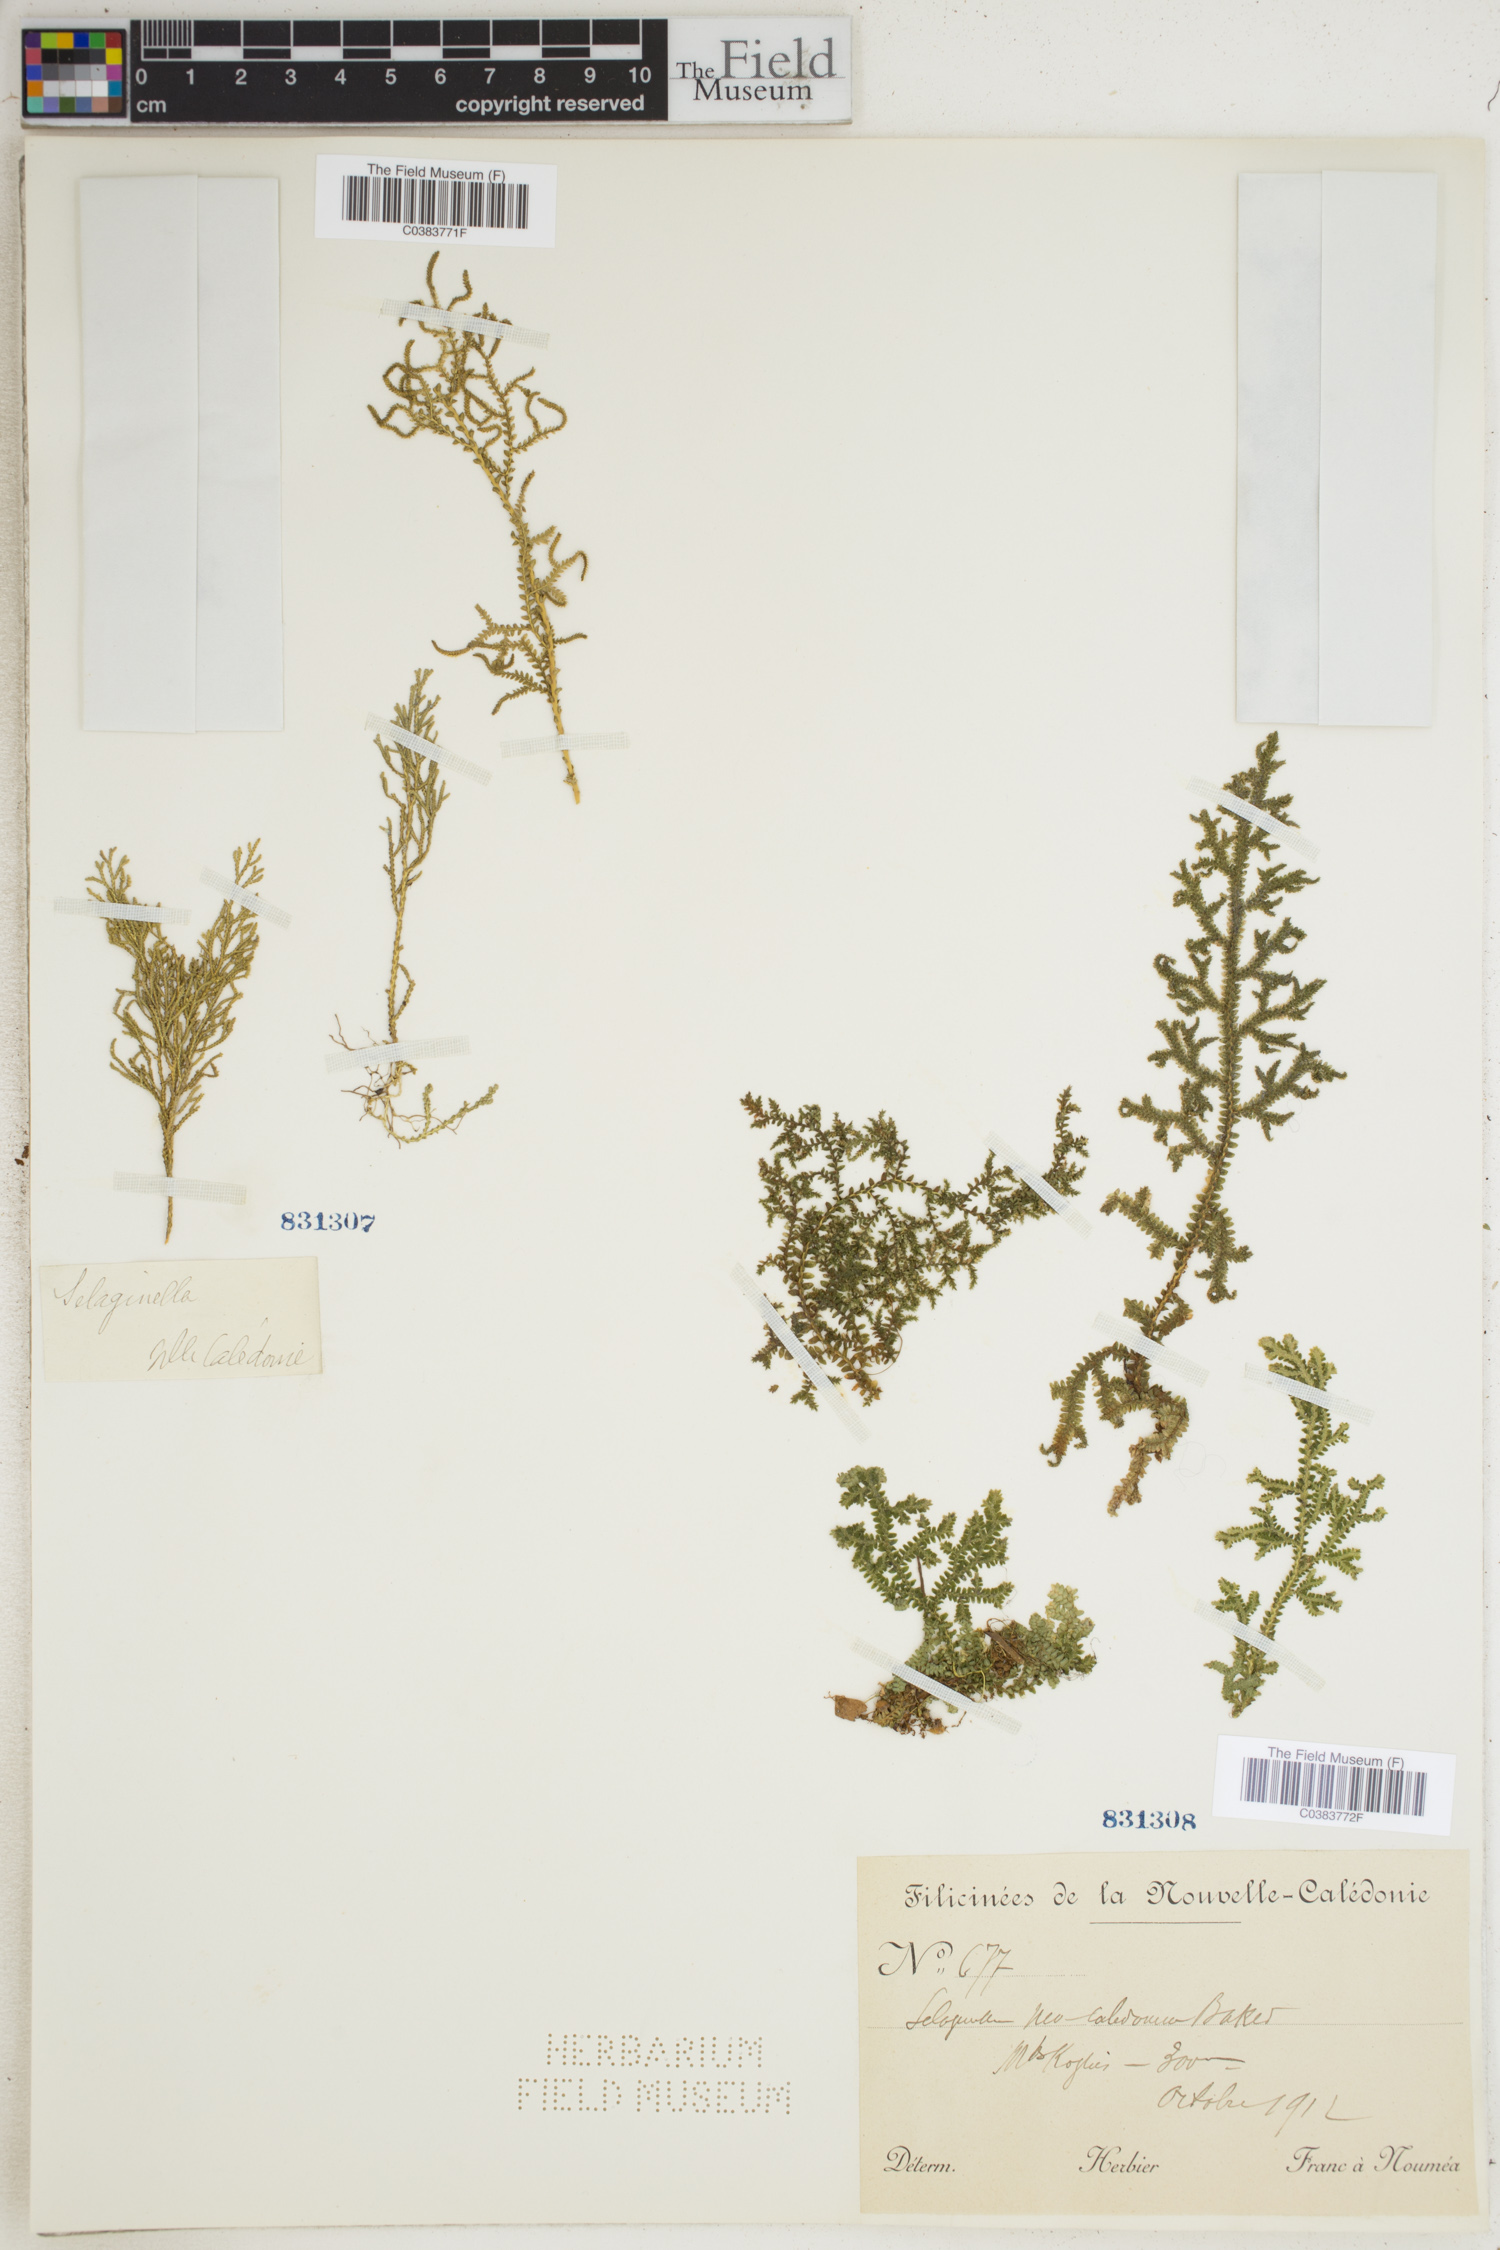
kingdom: Plantae
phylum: Tracheophyta
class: Lycopodiopsida
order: Selaginellales
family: Selaginellaceae
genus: Selaginella
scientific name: Selaginella neocaledonica
